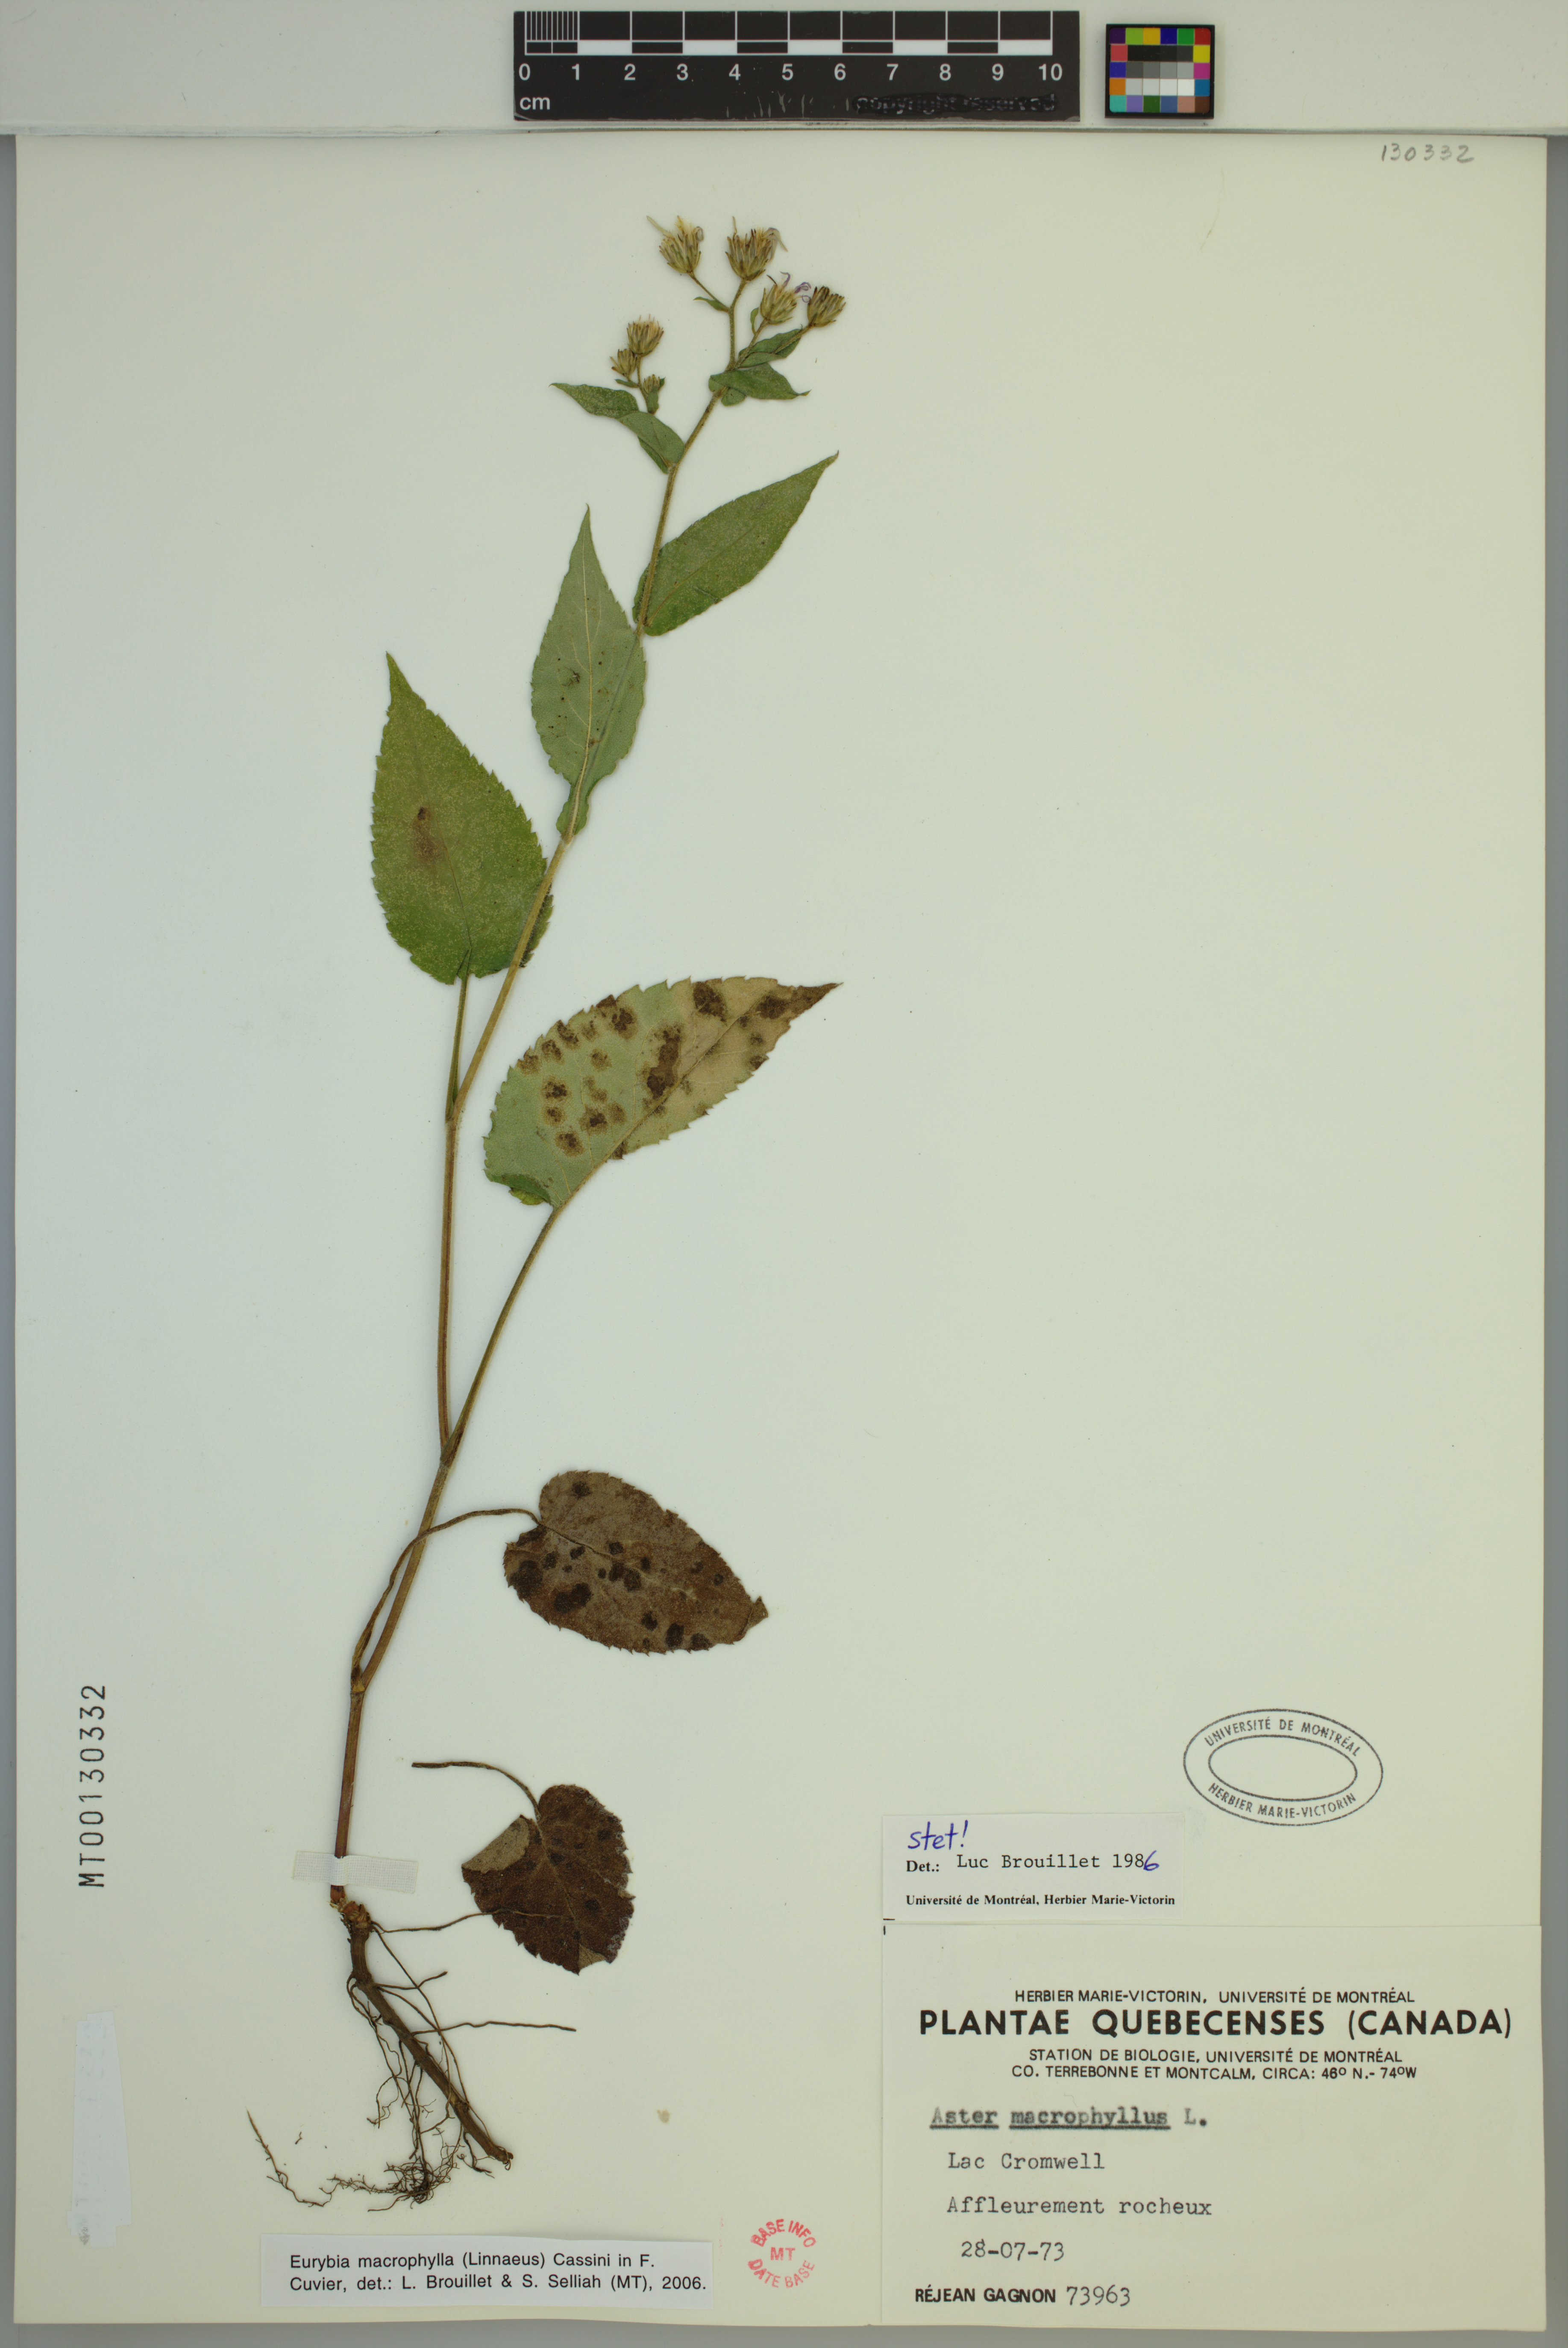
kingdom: Plantae
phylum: Tracheophyta
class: Magnoliopsida
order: Asterales
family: Asteraceae
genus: Eurybia
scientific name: Eurybia macrophylla
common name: Big-leaved aster
